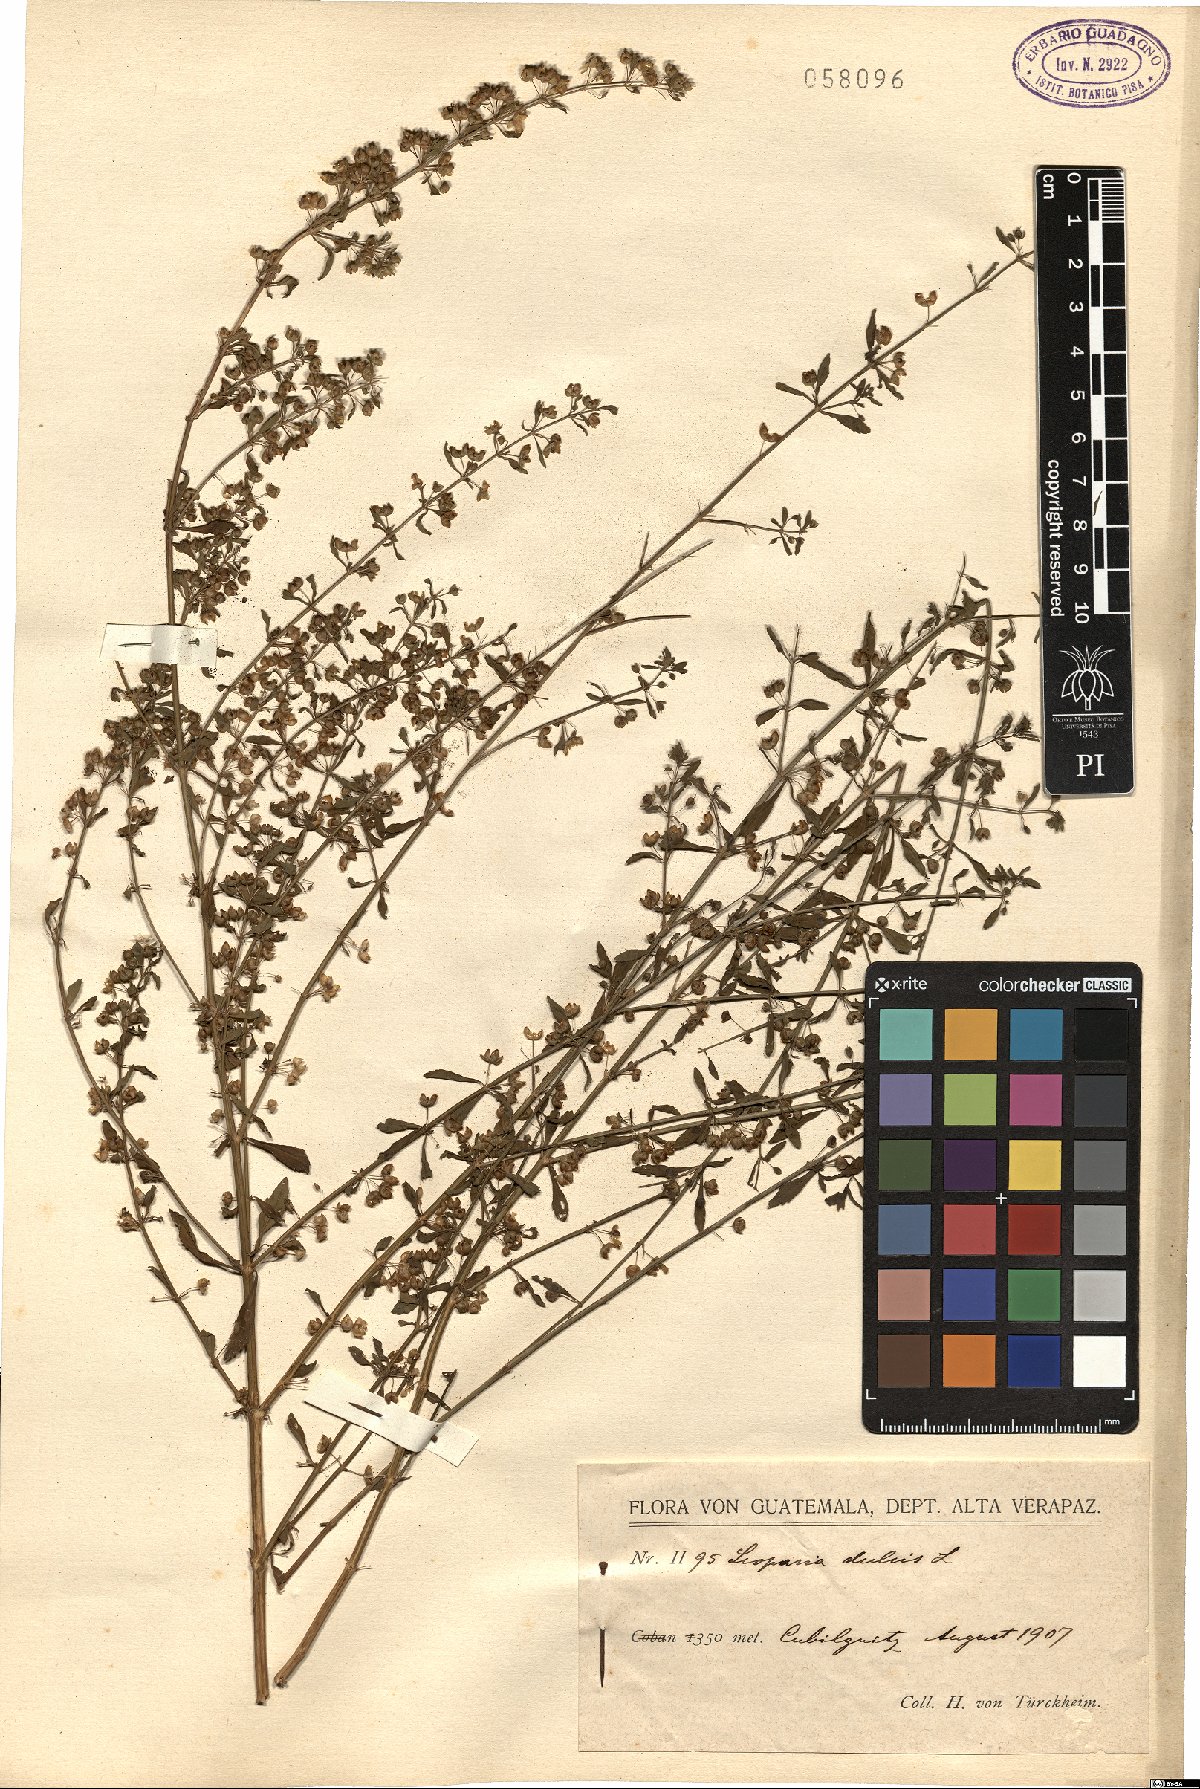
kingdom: Plantae
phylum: Tracheophyta
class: Magnoliopsida
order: Lamiales
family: Plantaginaceae
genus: Scoparia
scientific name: Scoparia dulcis
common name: Scoparia-weed
